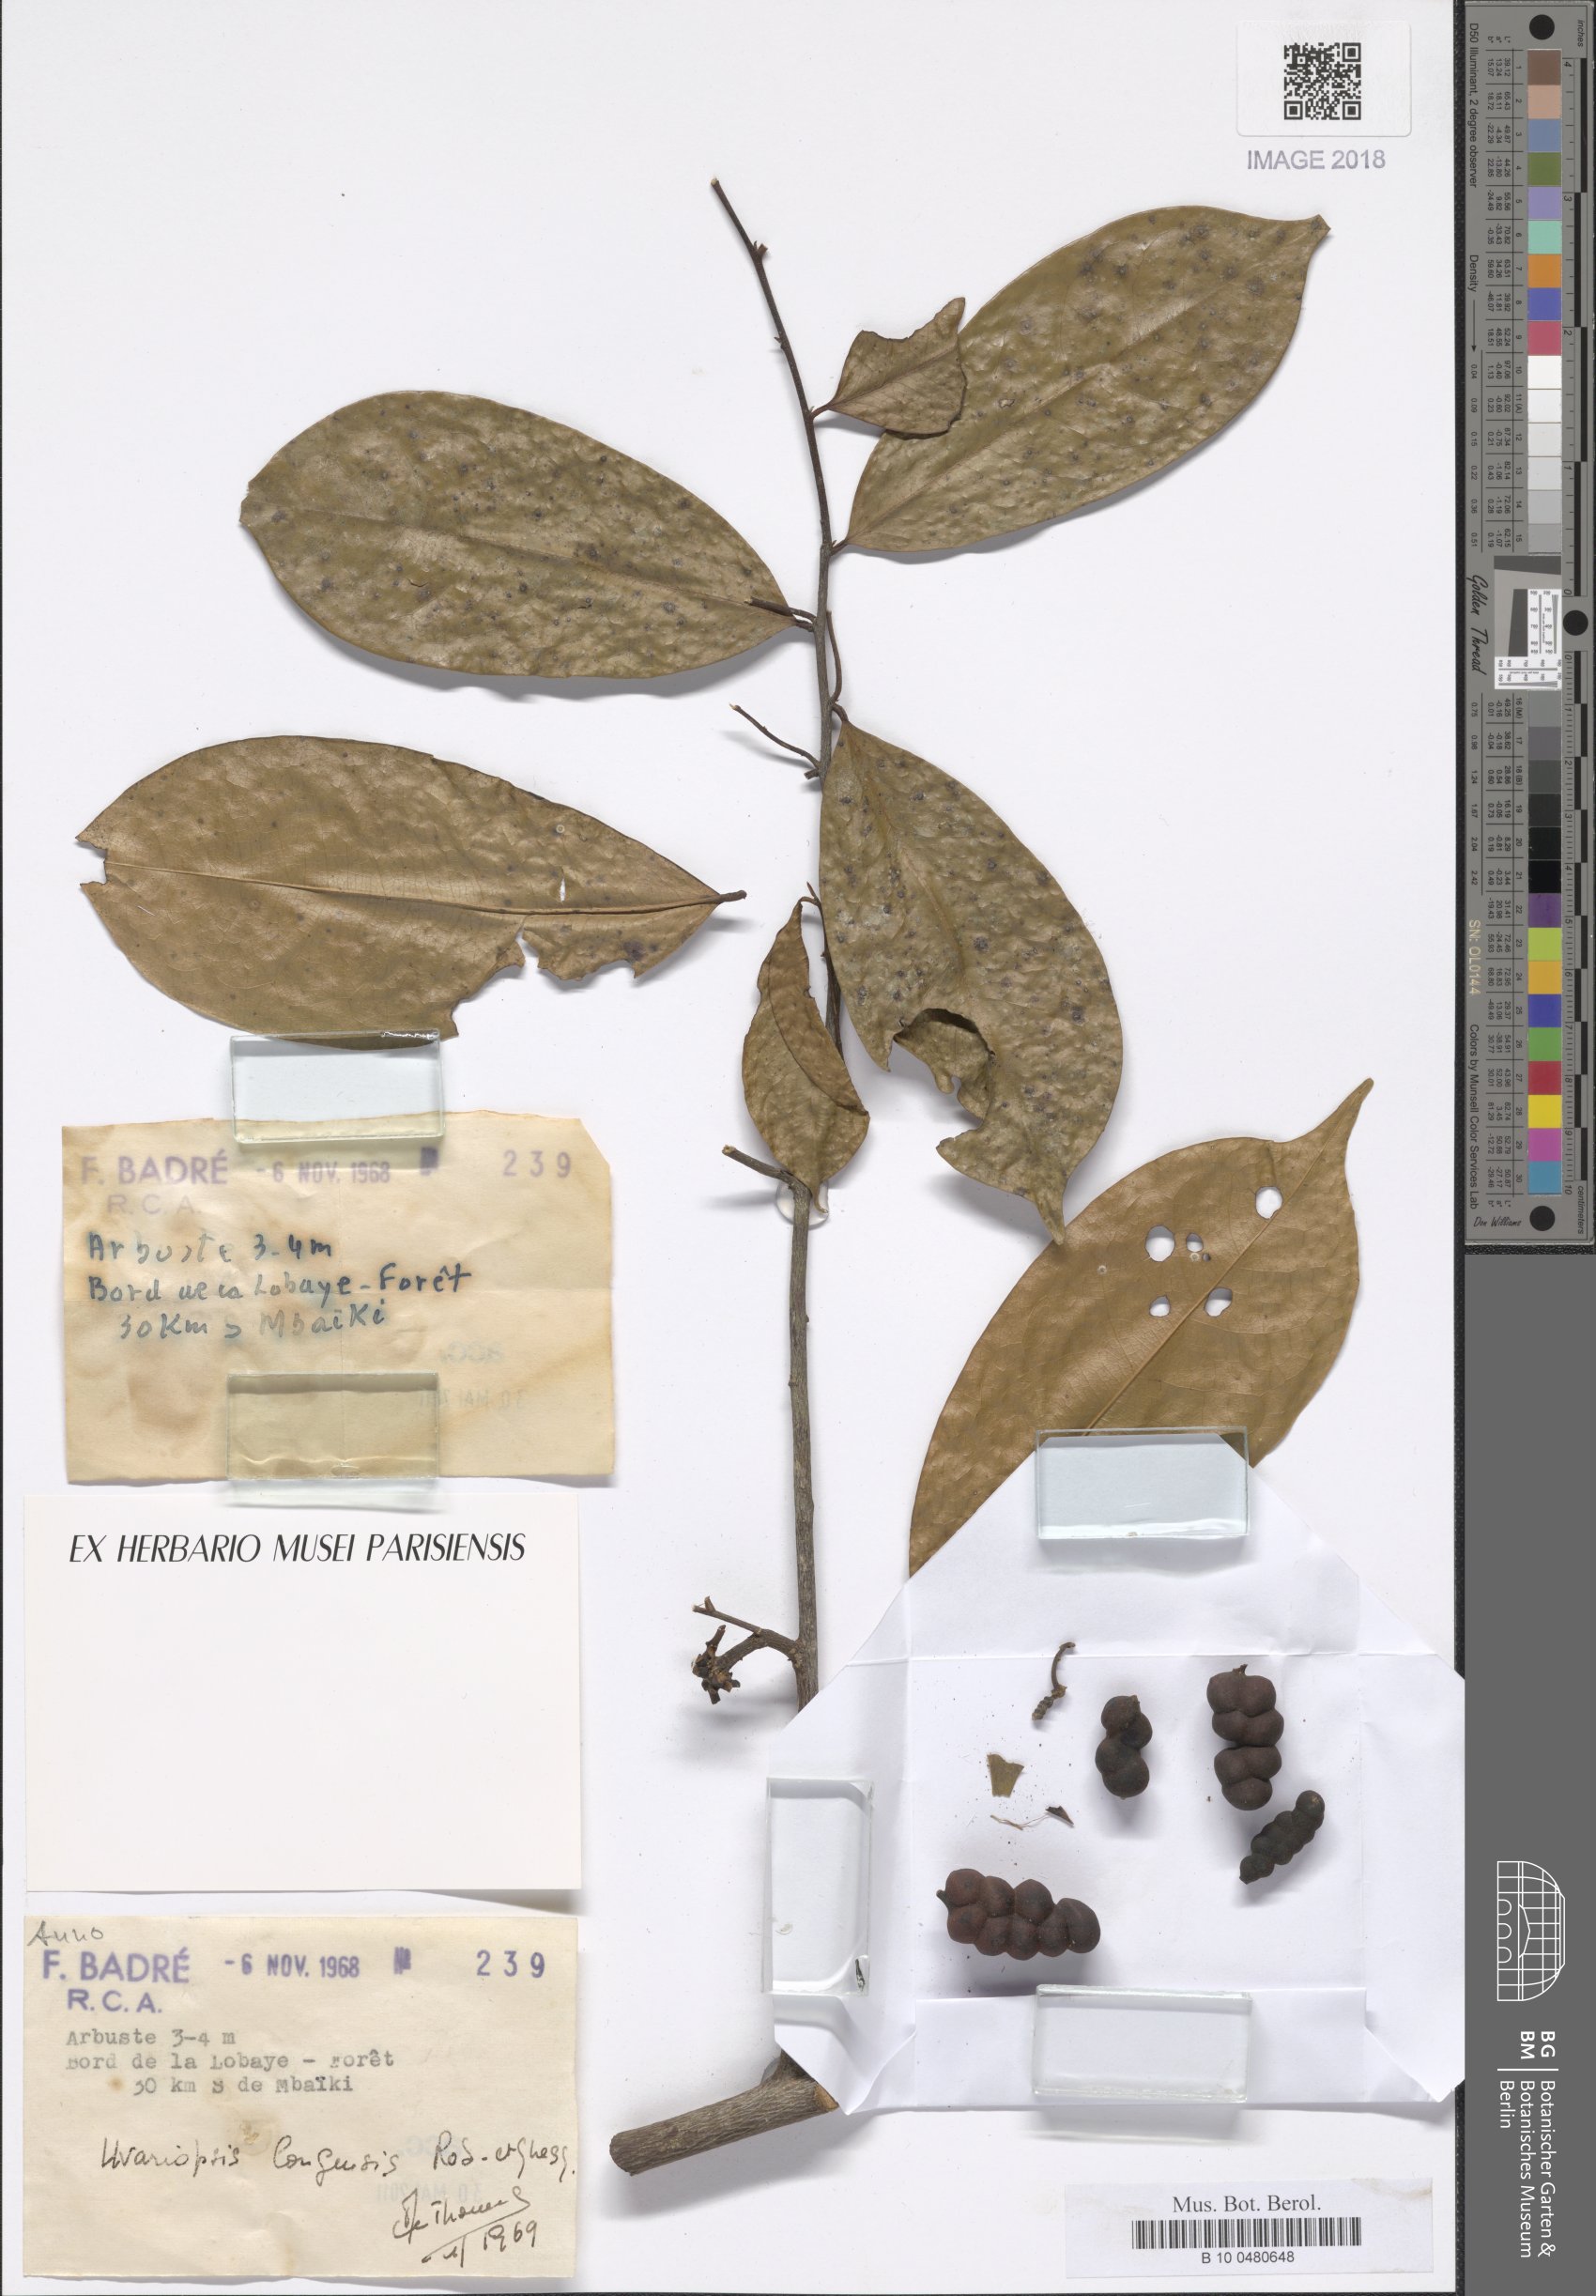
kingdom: Plantae
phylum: Tracheophyta
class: Magnoliopsida
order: Magnoliales
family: Annonaceae
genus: Uvariopsis
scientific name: Uvariopsis congensis
